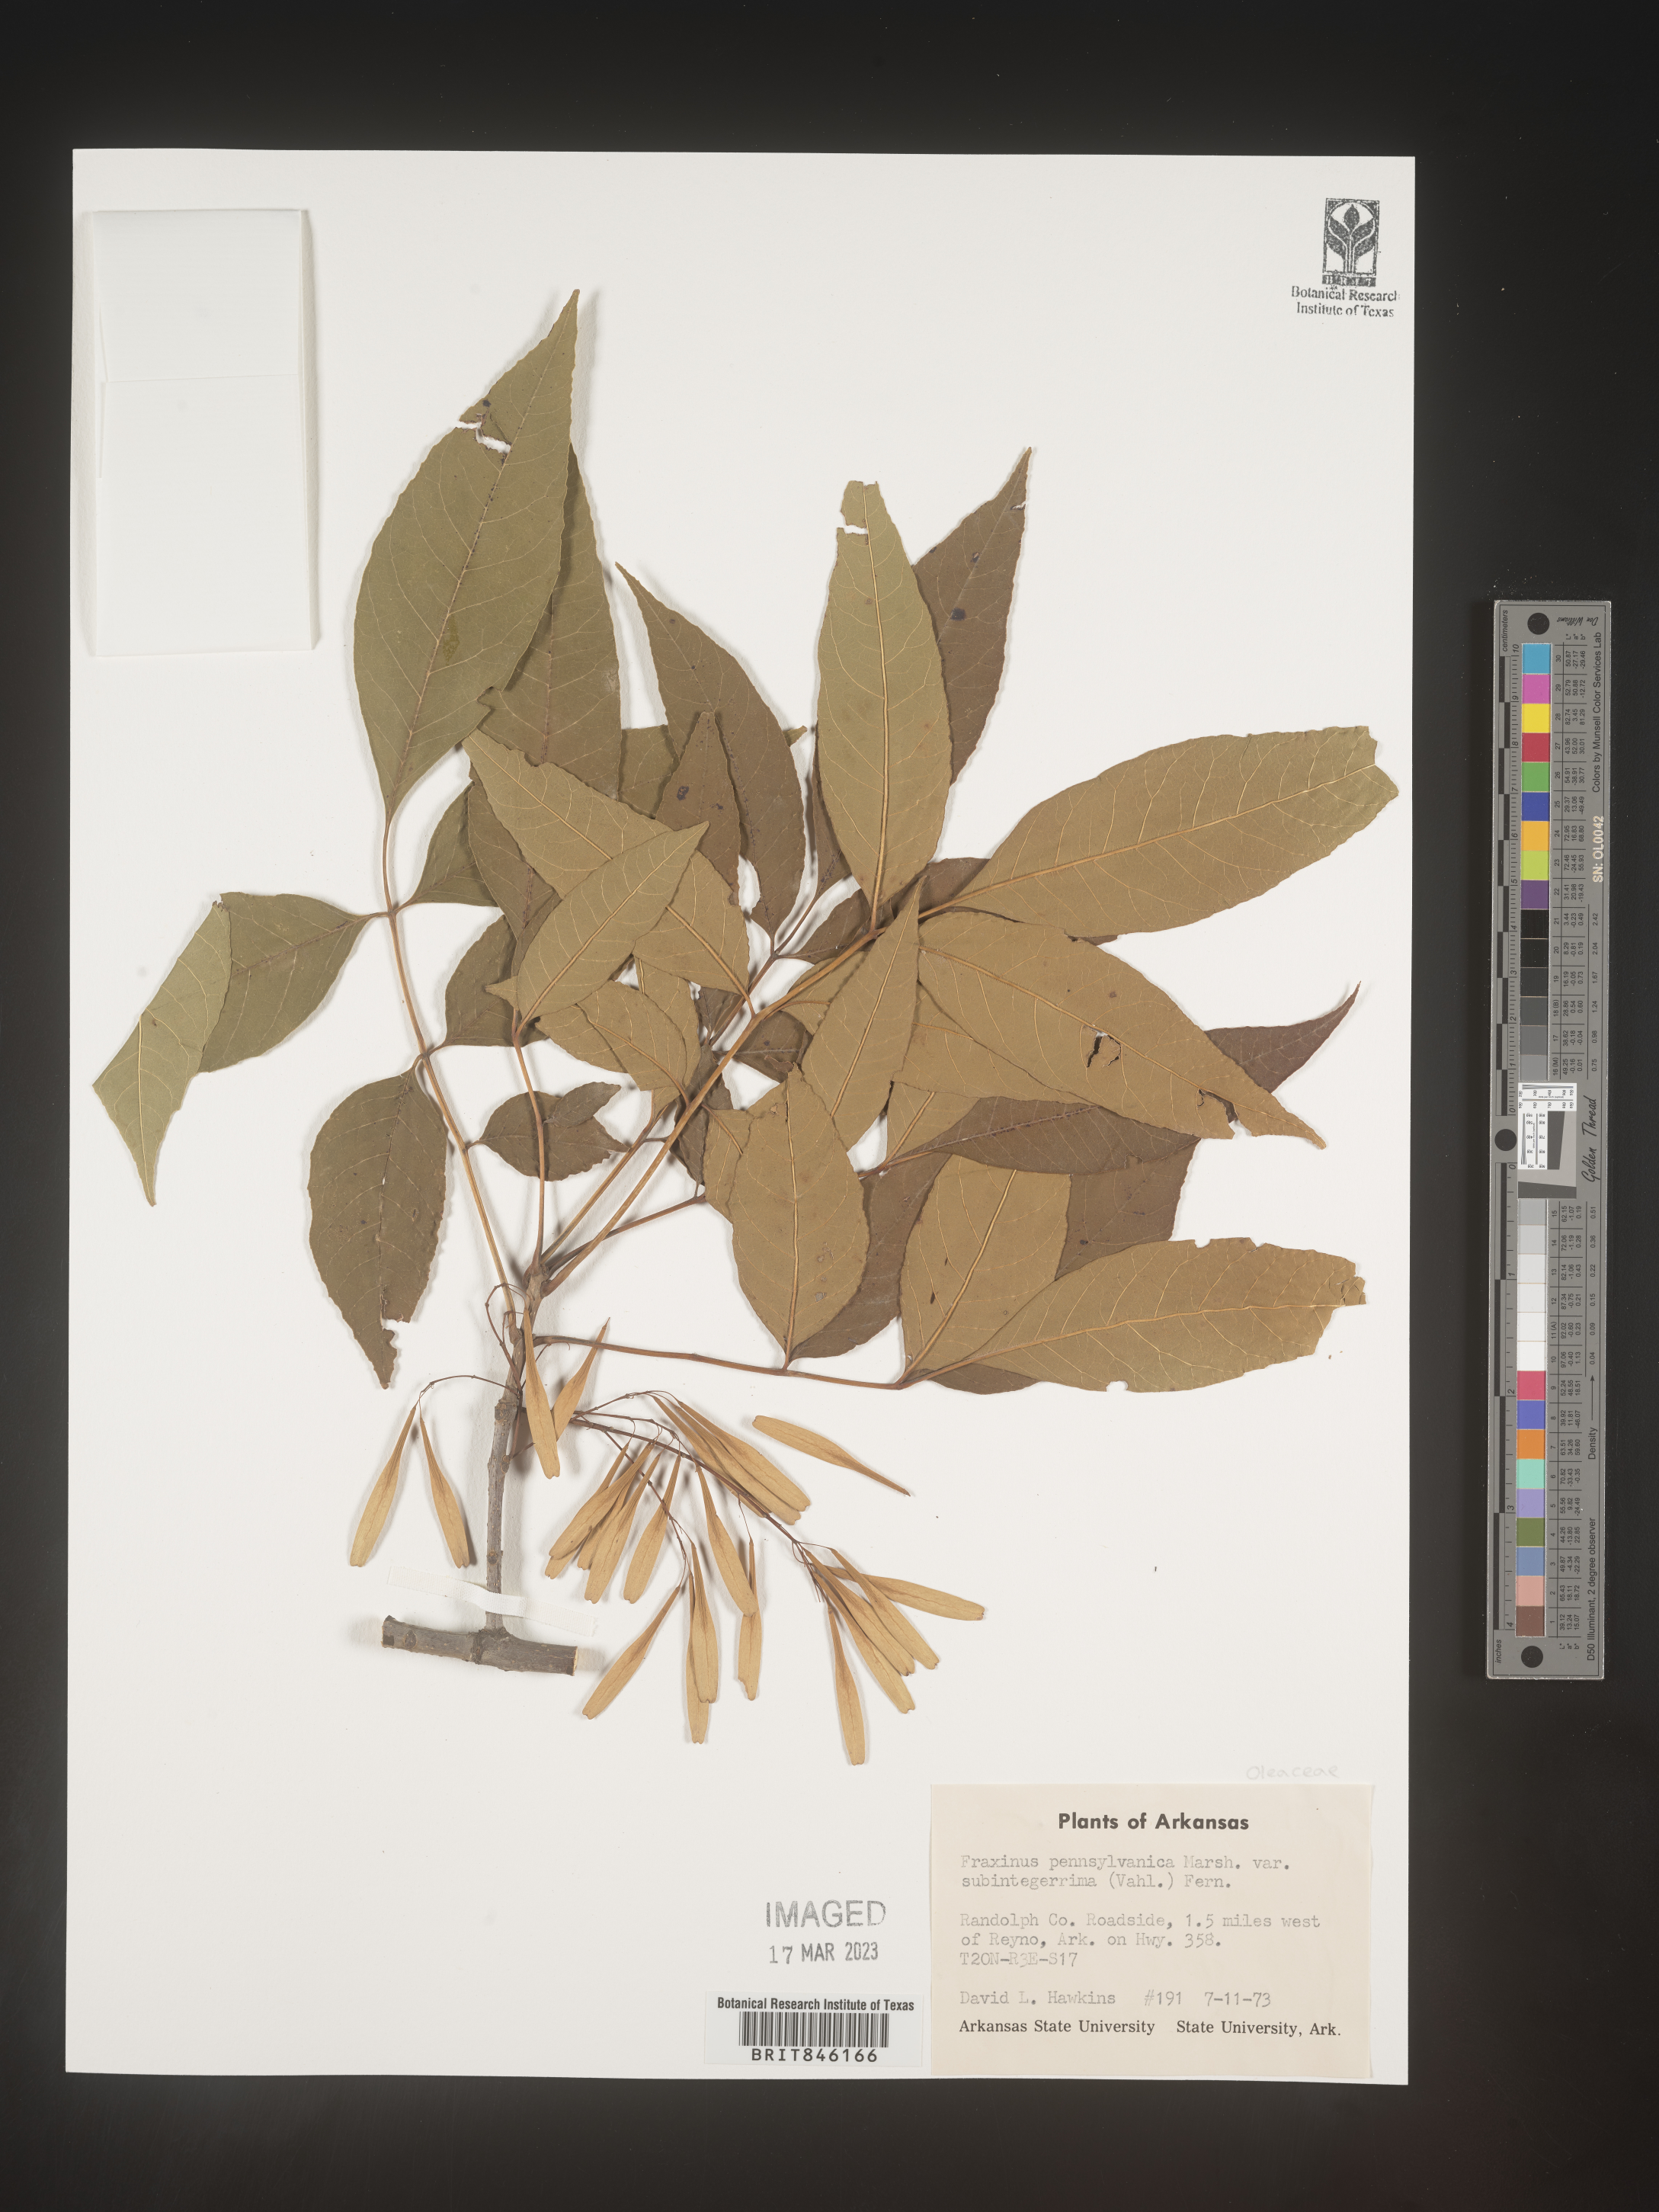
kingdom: Plantae
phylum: Tracheophyta
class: Magnoliopsida
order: Lamiales
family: Oleaceae
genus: Fraxinus
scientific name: Fraxinus pennsylvanica
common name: Green ash
